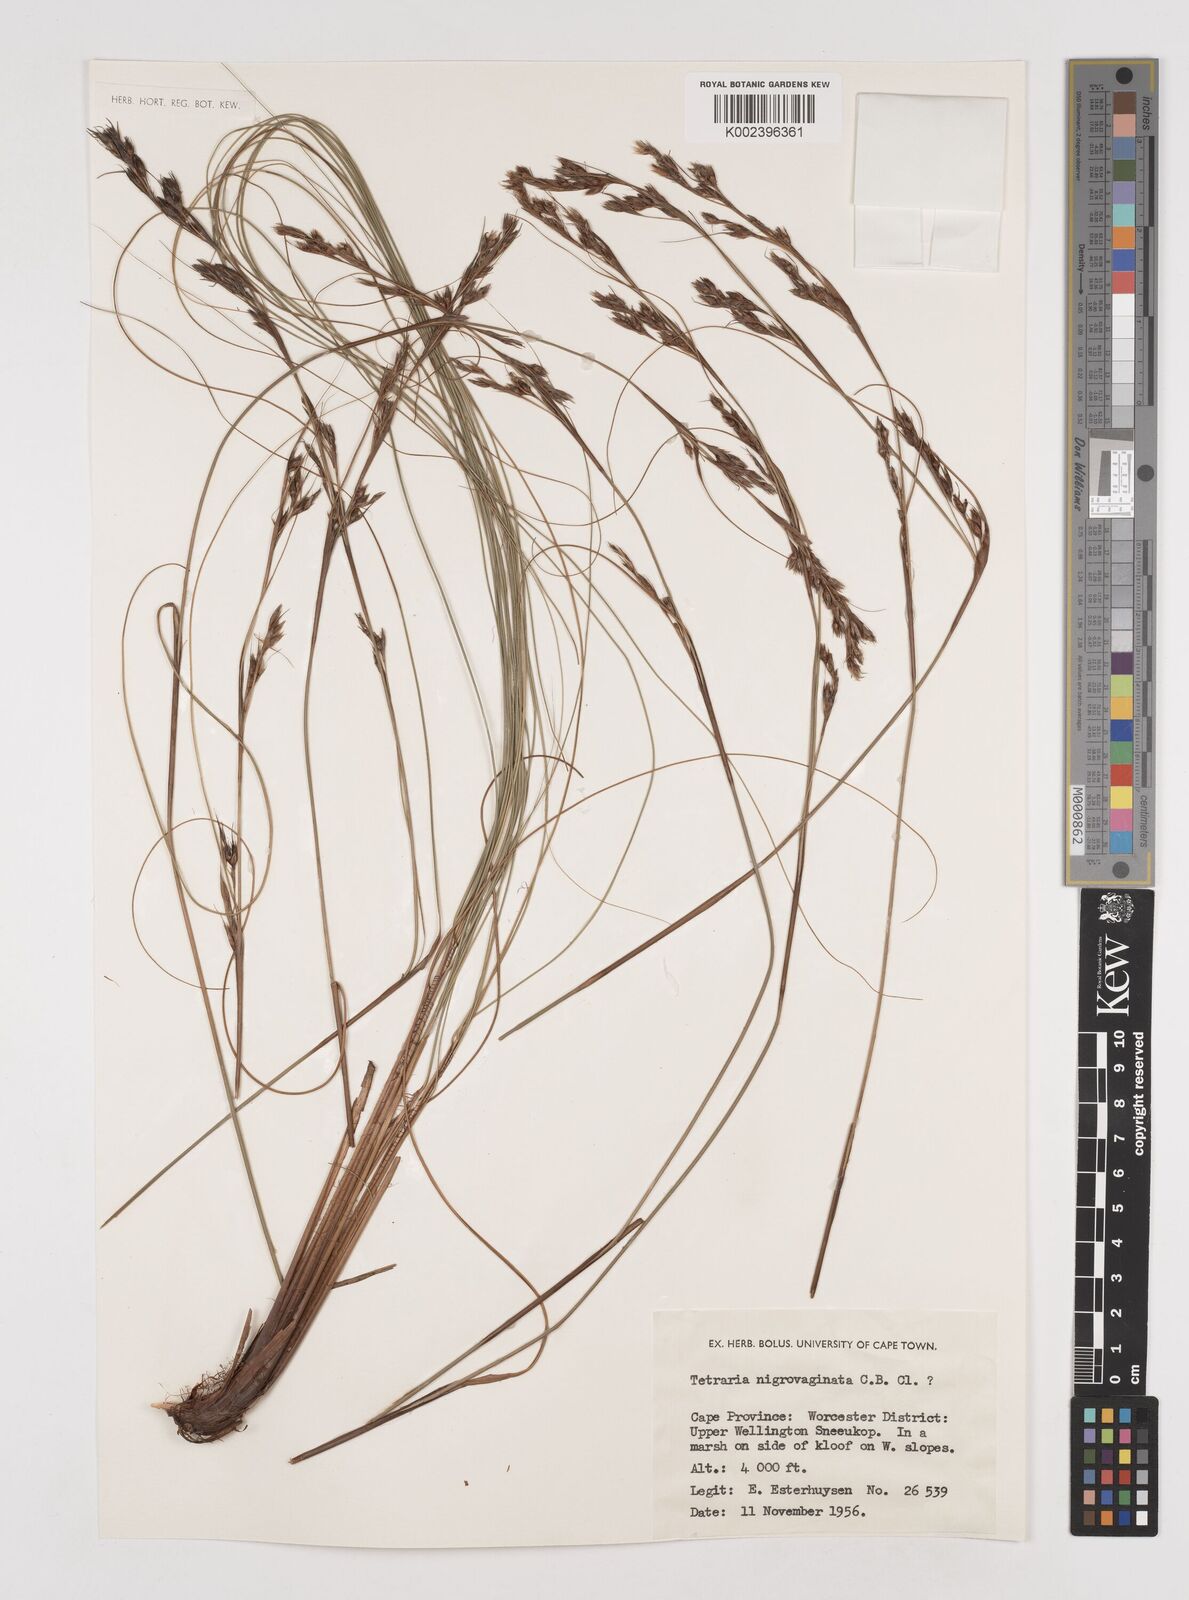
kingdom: Plantae
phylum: Tracheophyta
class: Liliopsida
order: Poales
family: Cyperaceae
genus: Tetraria
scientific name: Tetraria
